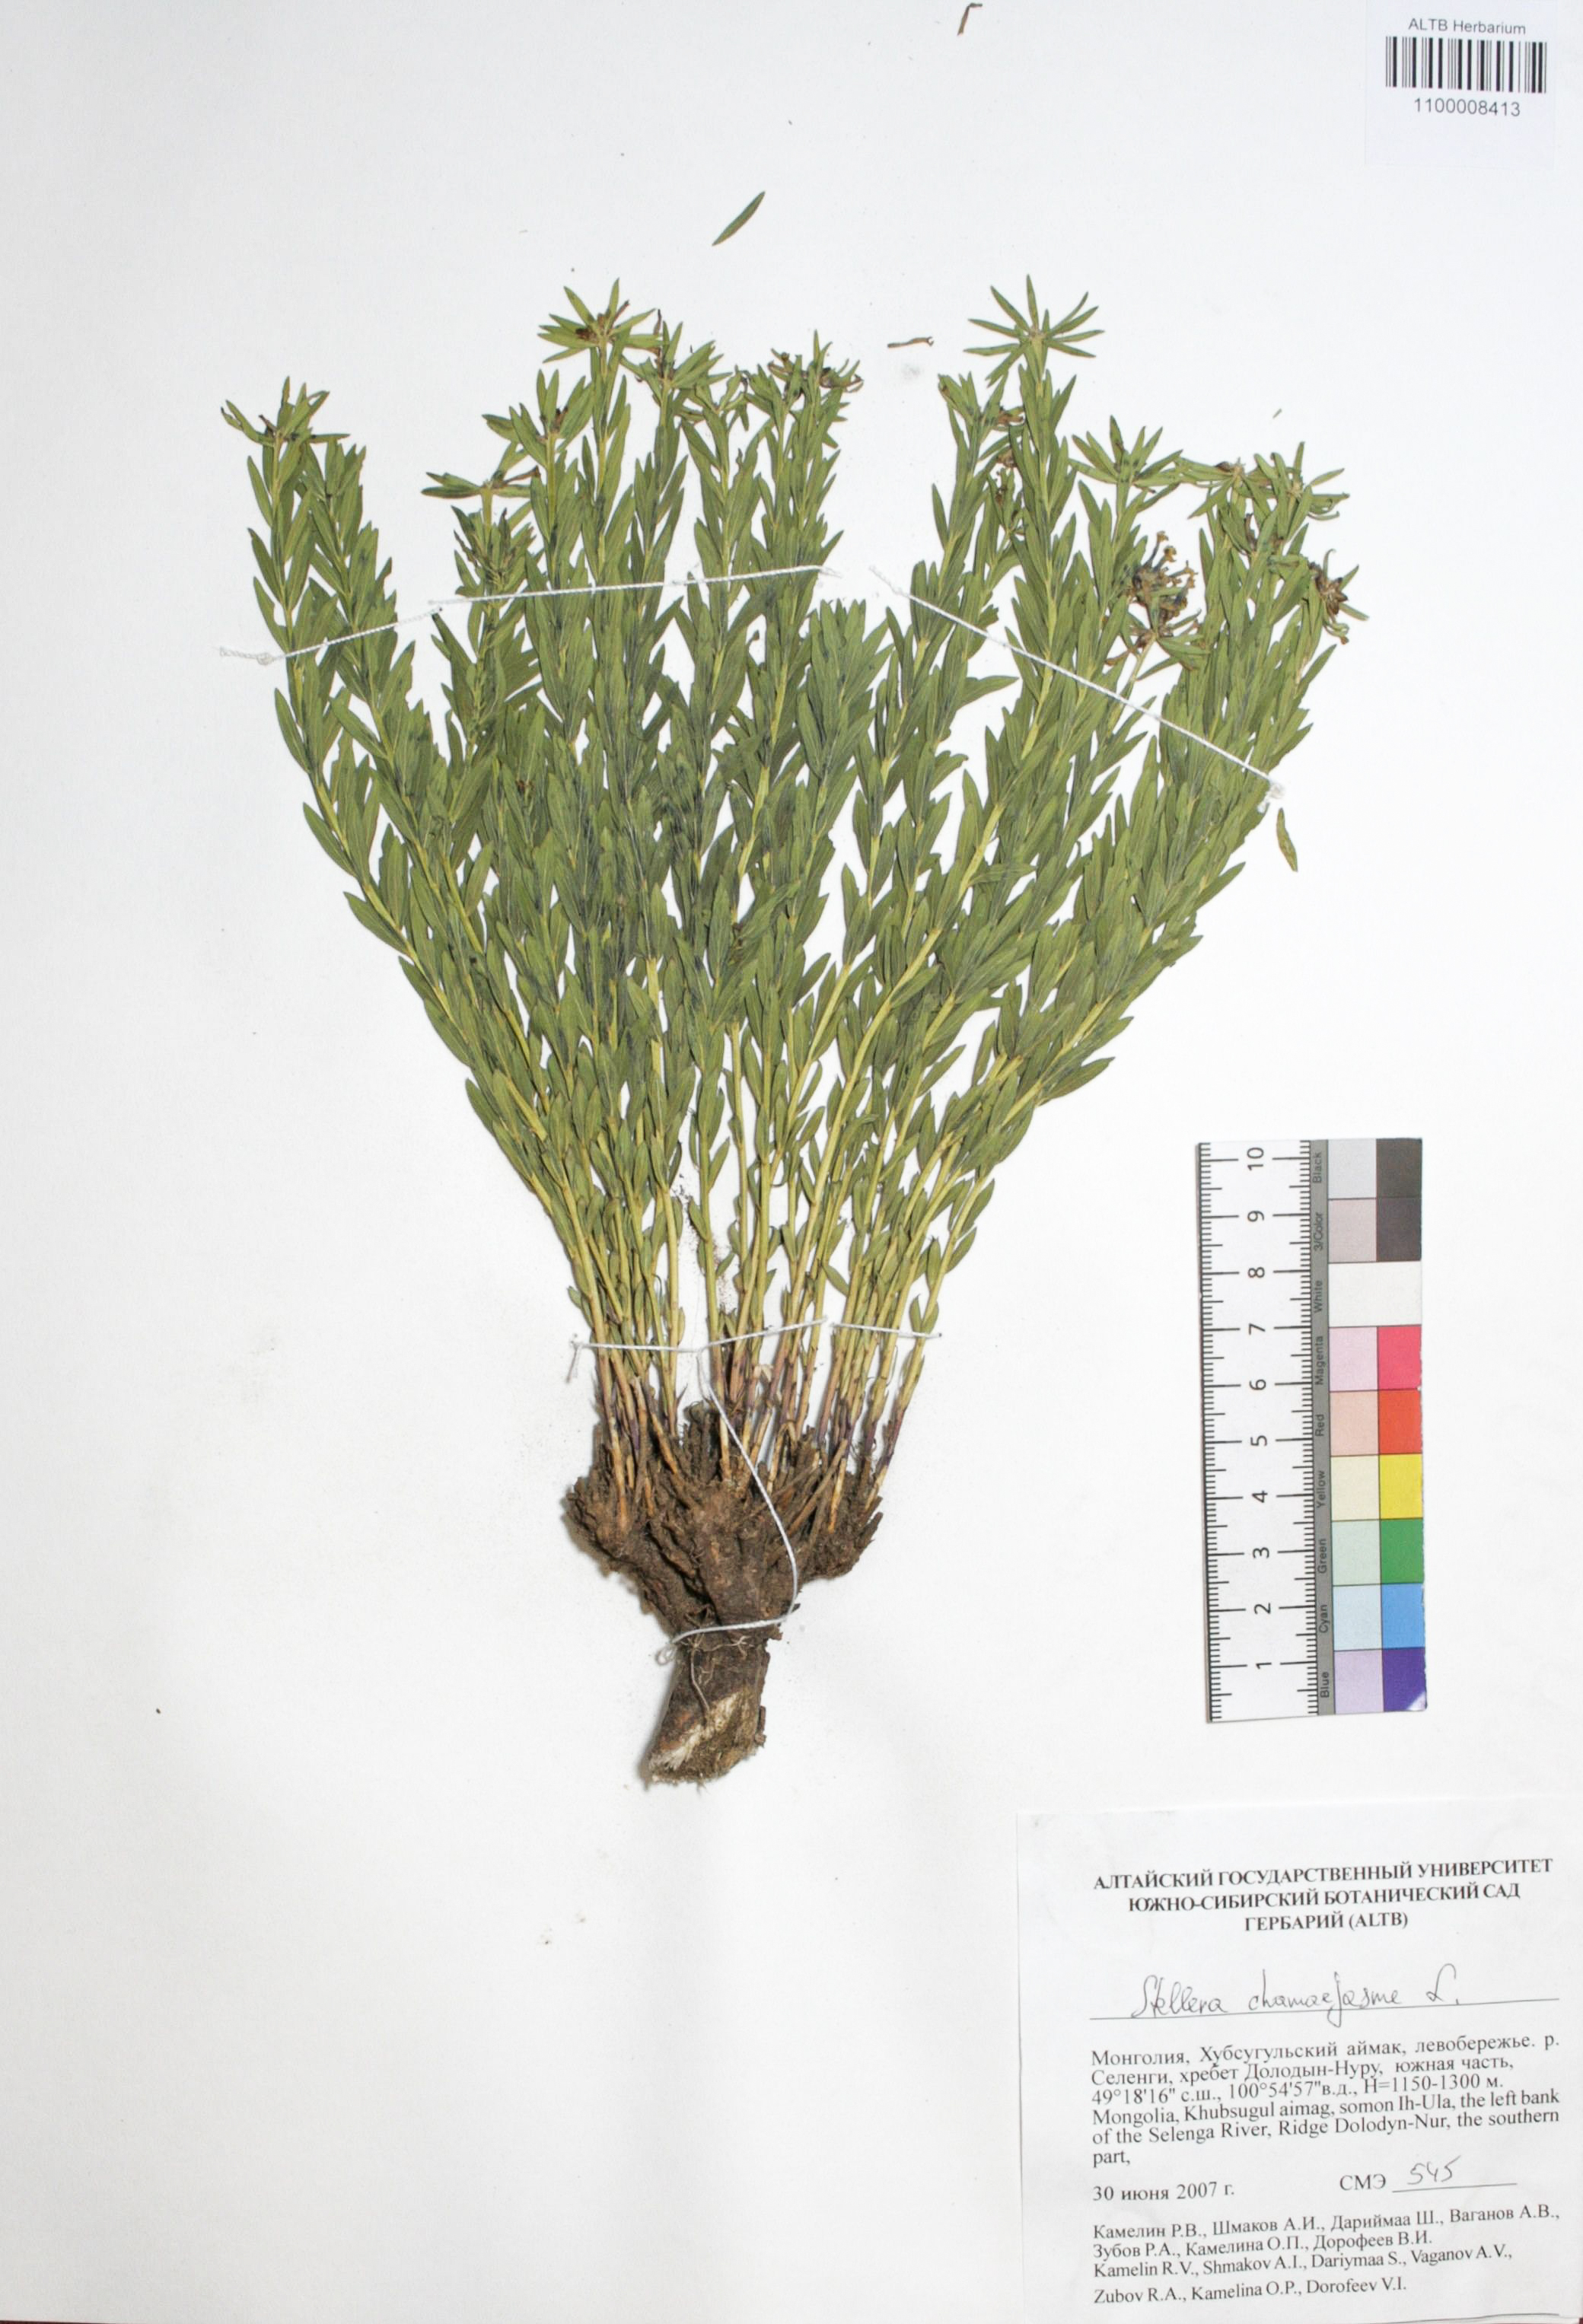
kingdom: Plantae
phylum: Tracheophyta
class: Magnoliopsida
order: Malvales
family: Thymelaeaceae
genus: Stellera
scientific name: Stellera chamaejasme
